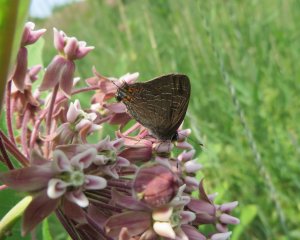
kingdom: Animalia
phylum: Arthropoda
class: Insecta
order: Lepidoptera
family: Lycaenidae
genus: Satyrium
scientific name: Satyrium liparops
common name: Striped Hairstreak
